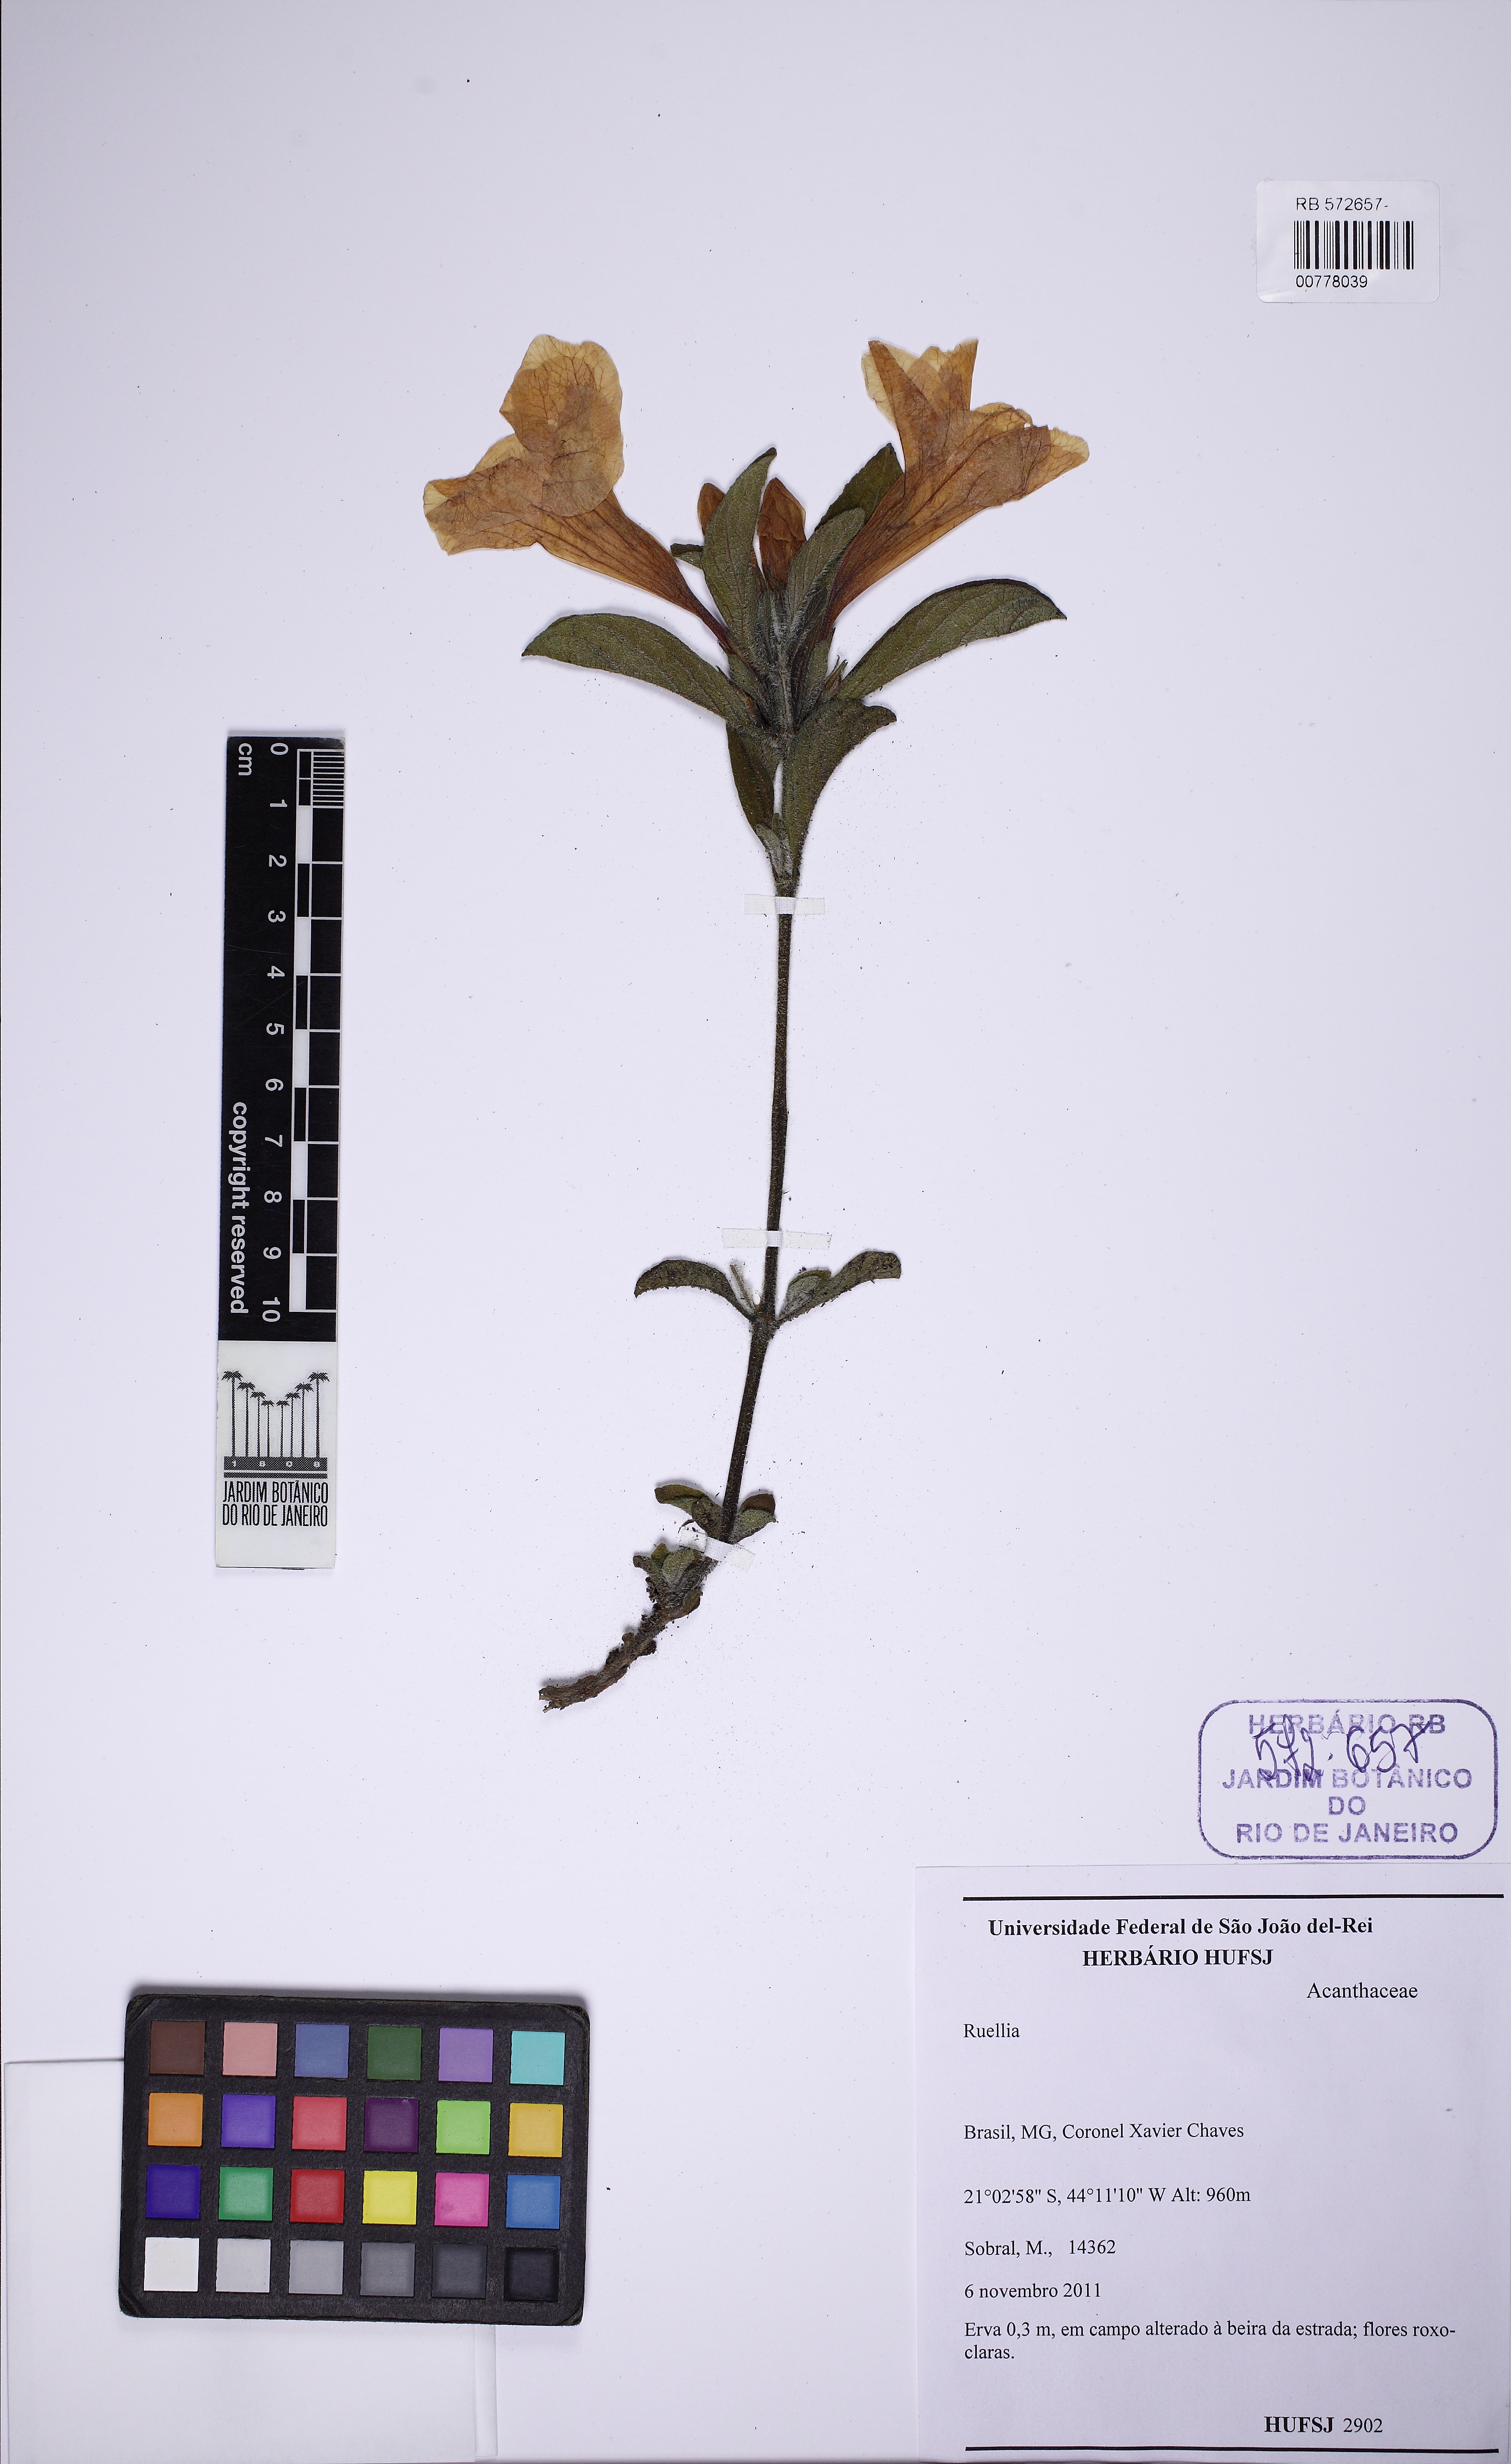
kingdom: Plantae
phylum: Tracheophyta
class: Magnoliopsida
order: Lamiales
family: Acanthaceae
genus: Ruellia
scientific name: Ruellia multifolia
